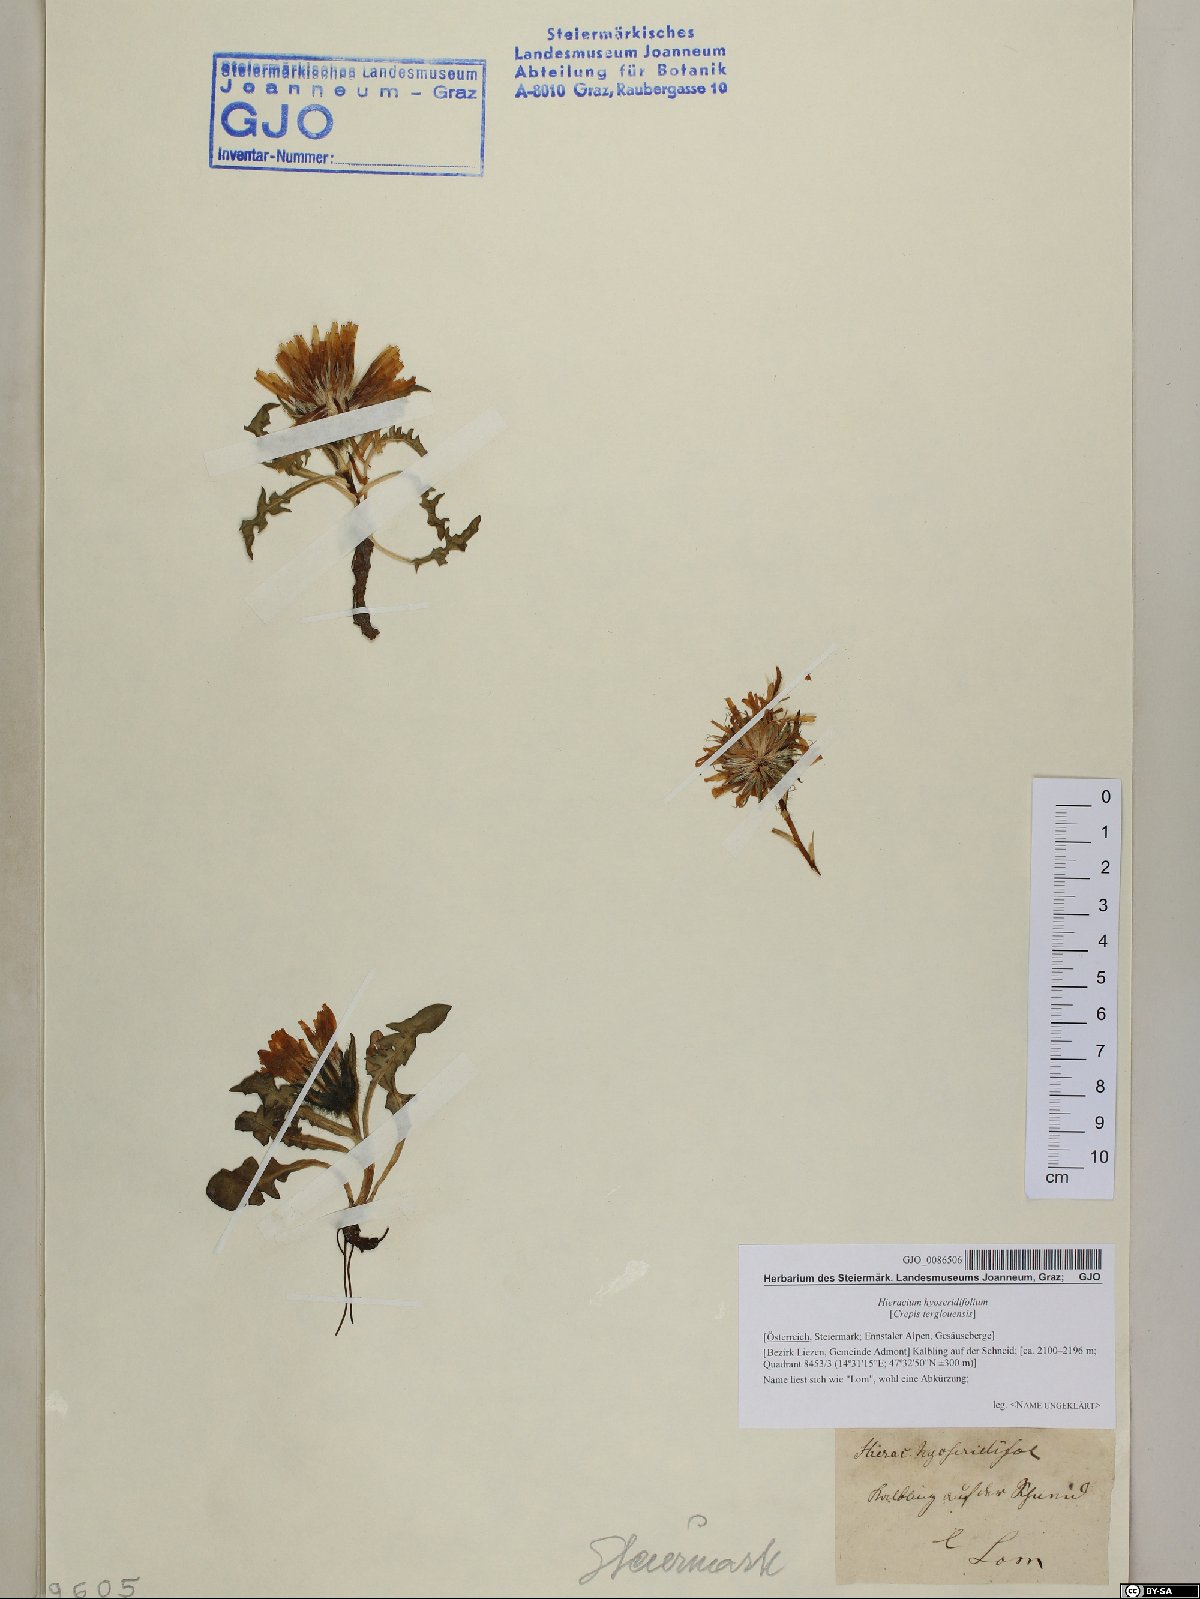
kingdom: Plantae
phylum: Tracheophyta
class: Magnoliopsida
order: Asterales
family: Asteraceae
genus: Crepis
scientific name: Crepis terglouensis
